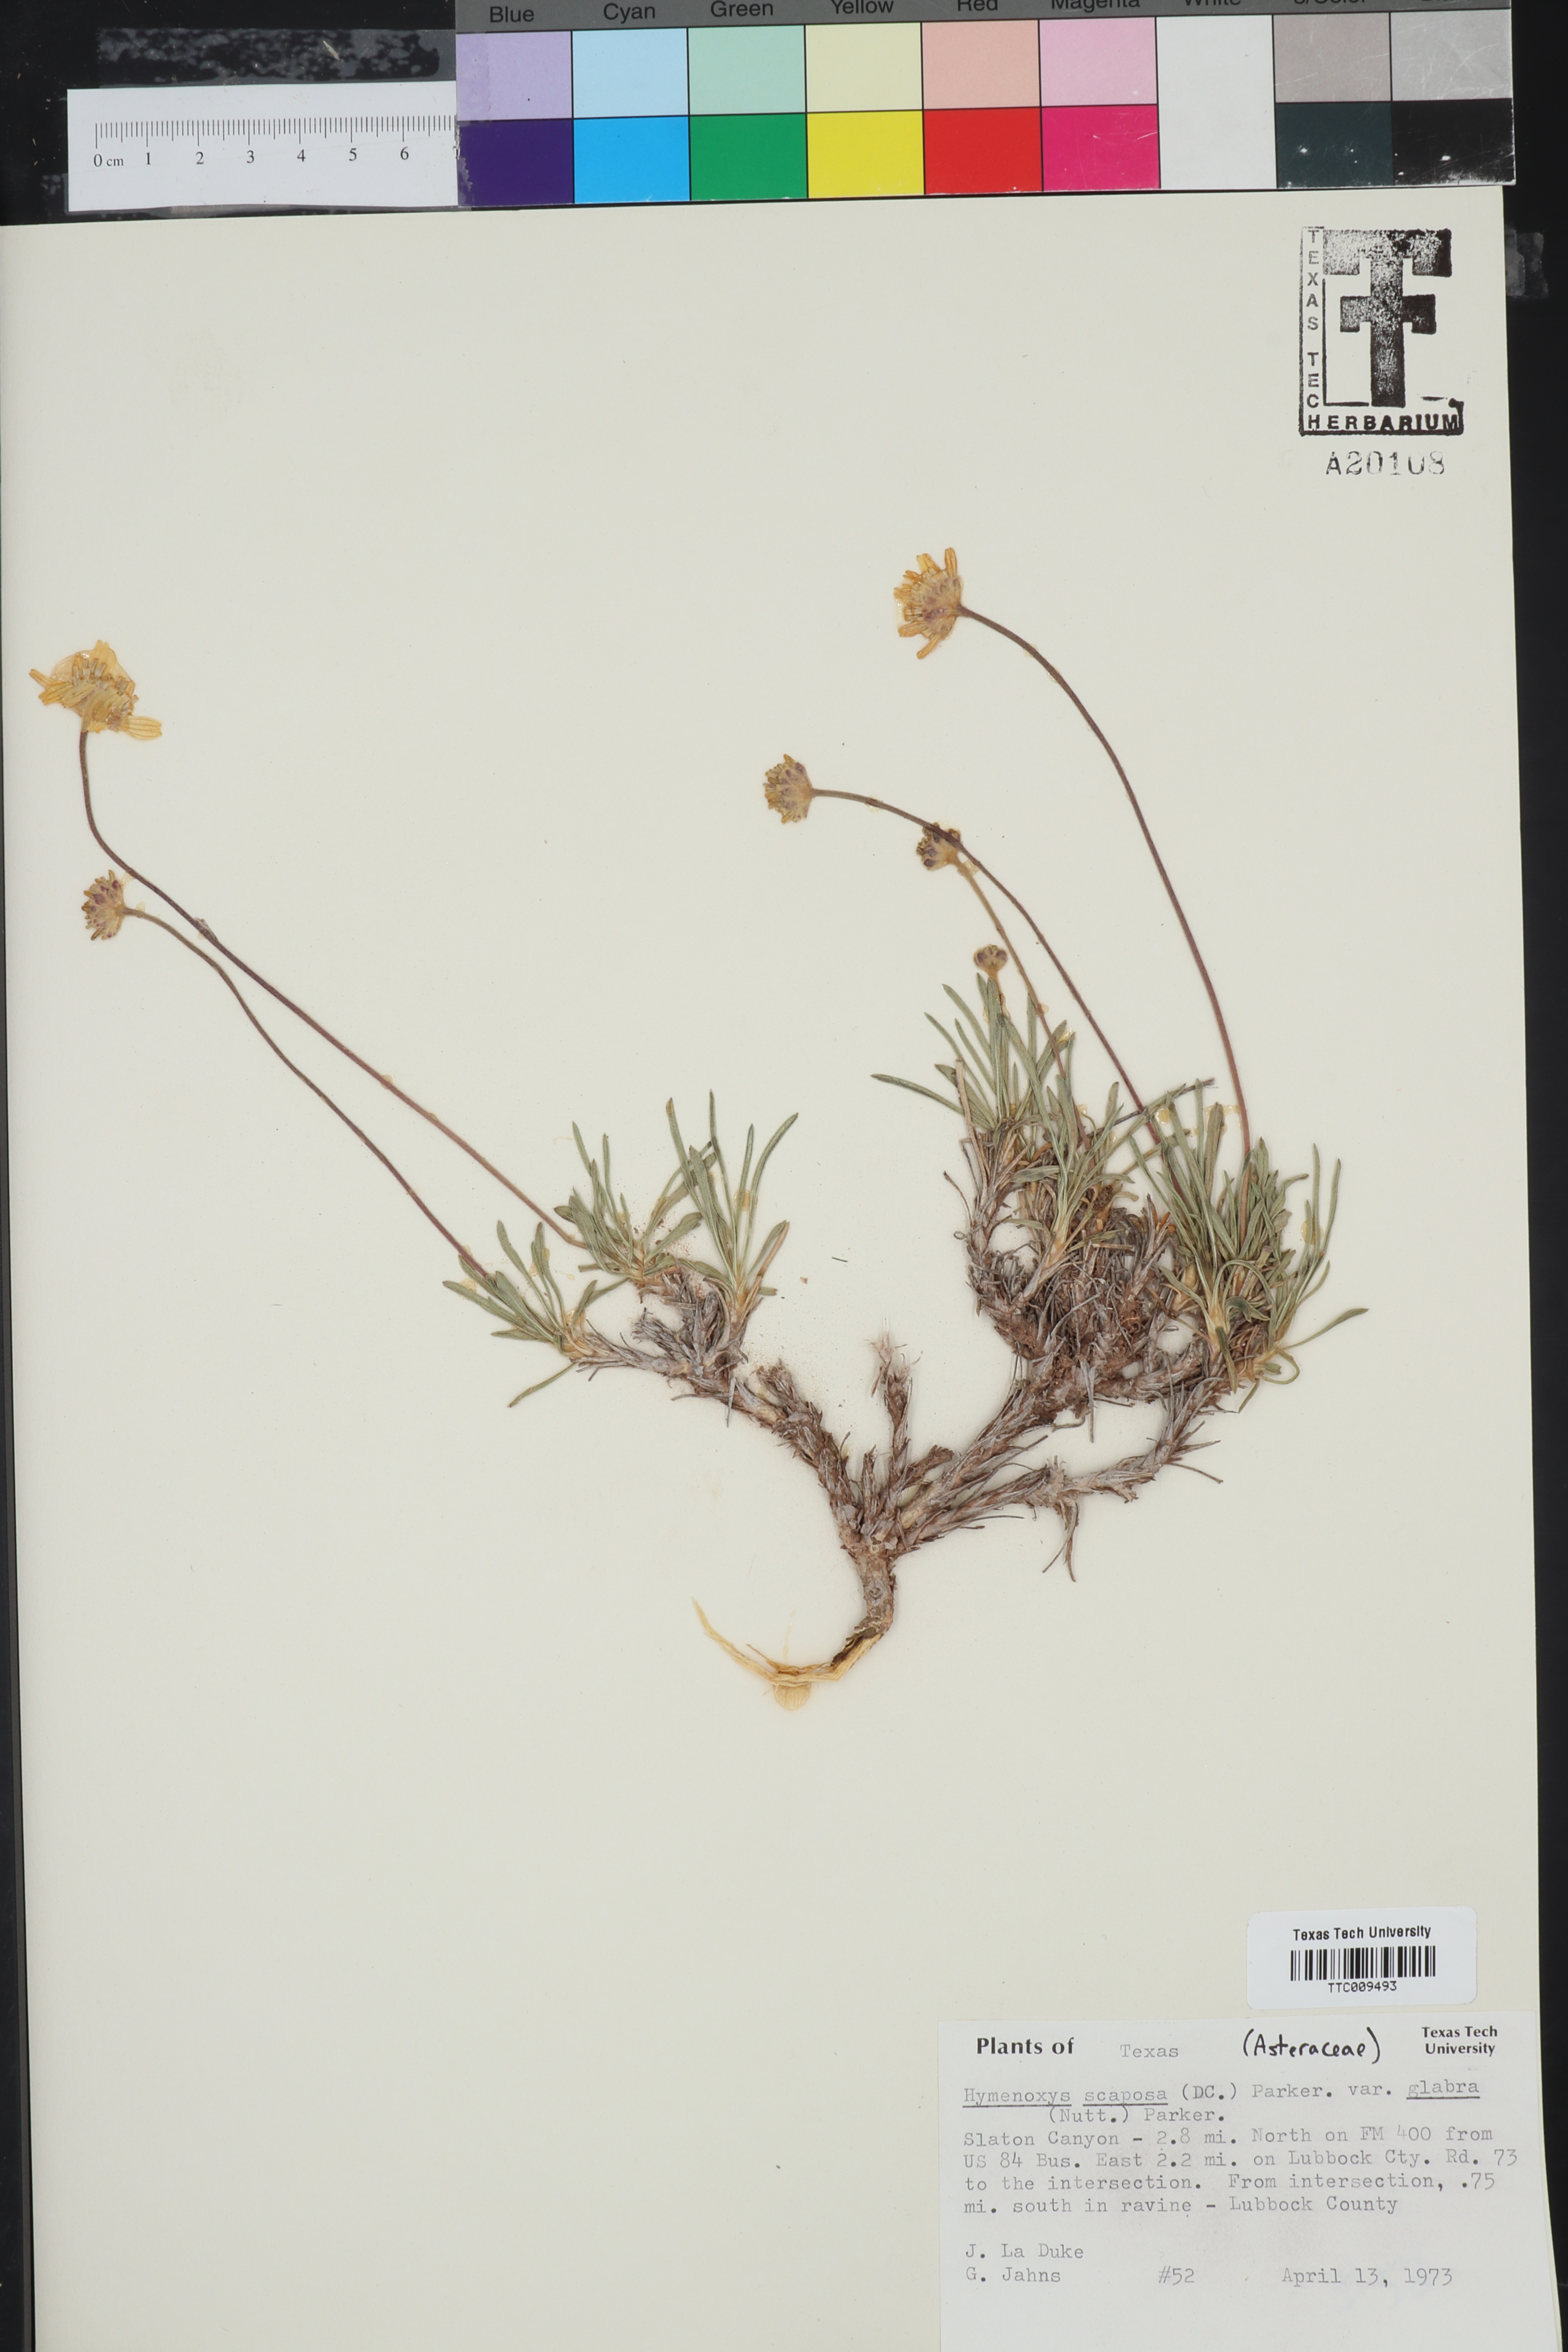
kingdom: Plantae
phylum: Tracheophyta
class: Magnoliopsida
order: Asterales
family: Asteraceae
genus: Tetraneuris
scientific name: Tetraneuris scaposa
